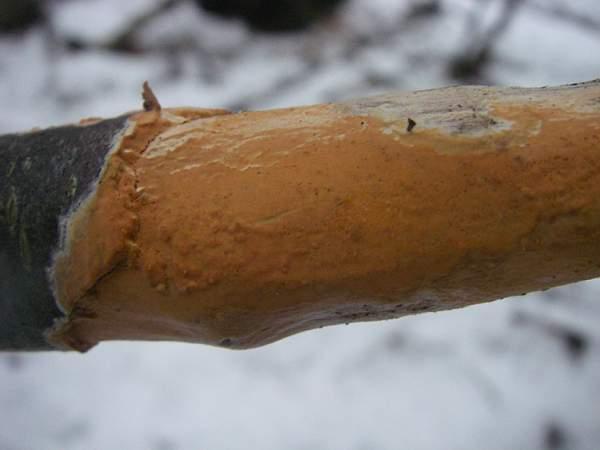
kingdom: Fungi
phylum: Basidiomycota
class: Agaricomycetes
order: Russulales
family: Peniophoraceae
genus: Peniophora
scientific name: Peniophora incarnata
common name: laksefarvet voksskind
